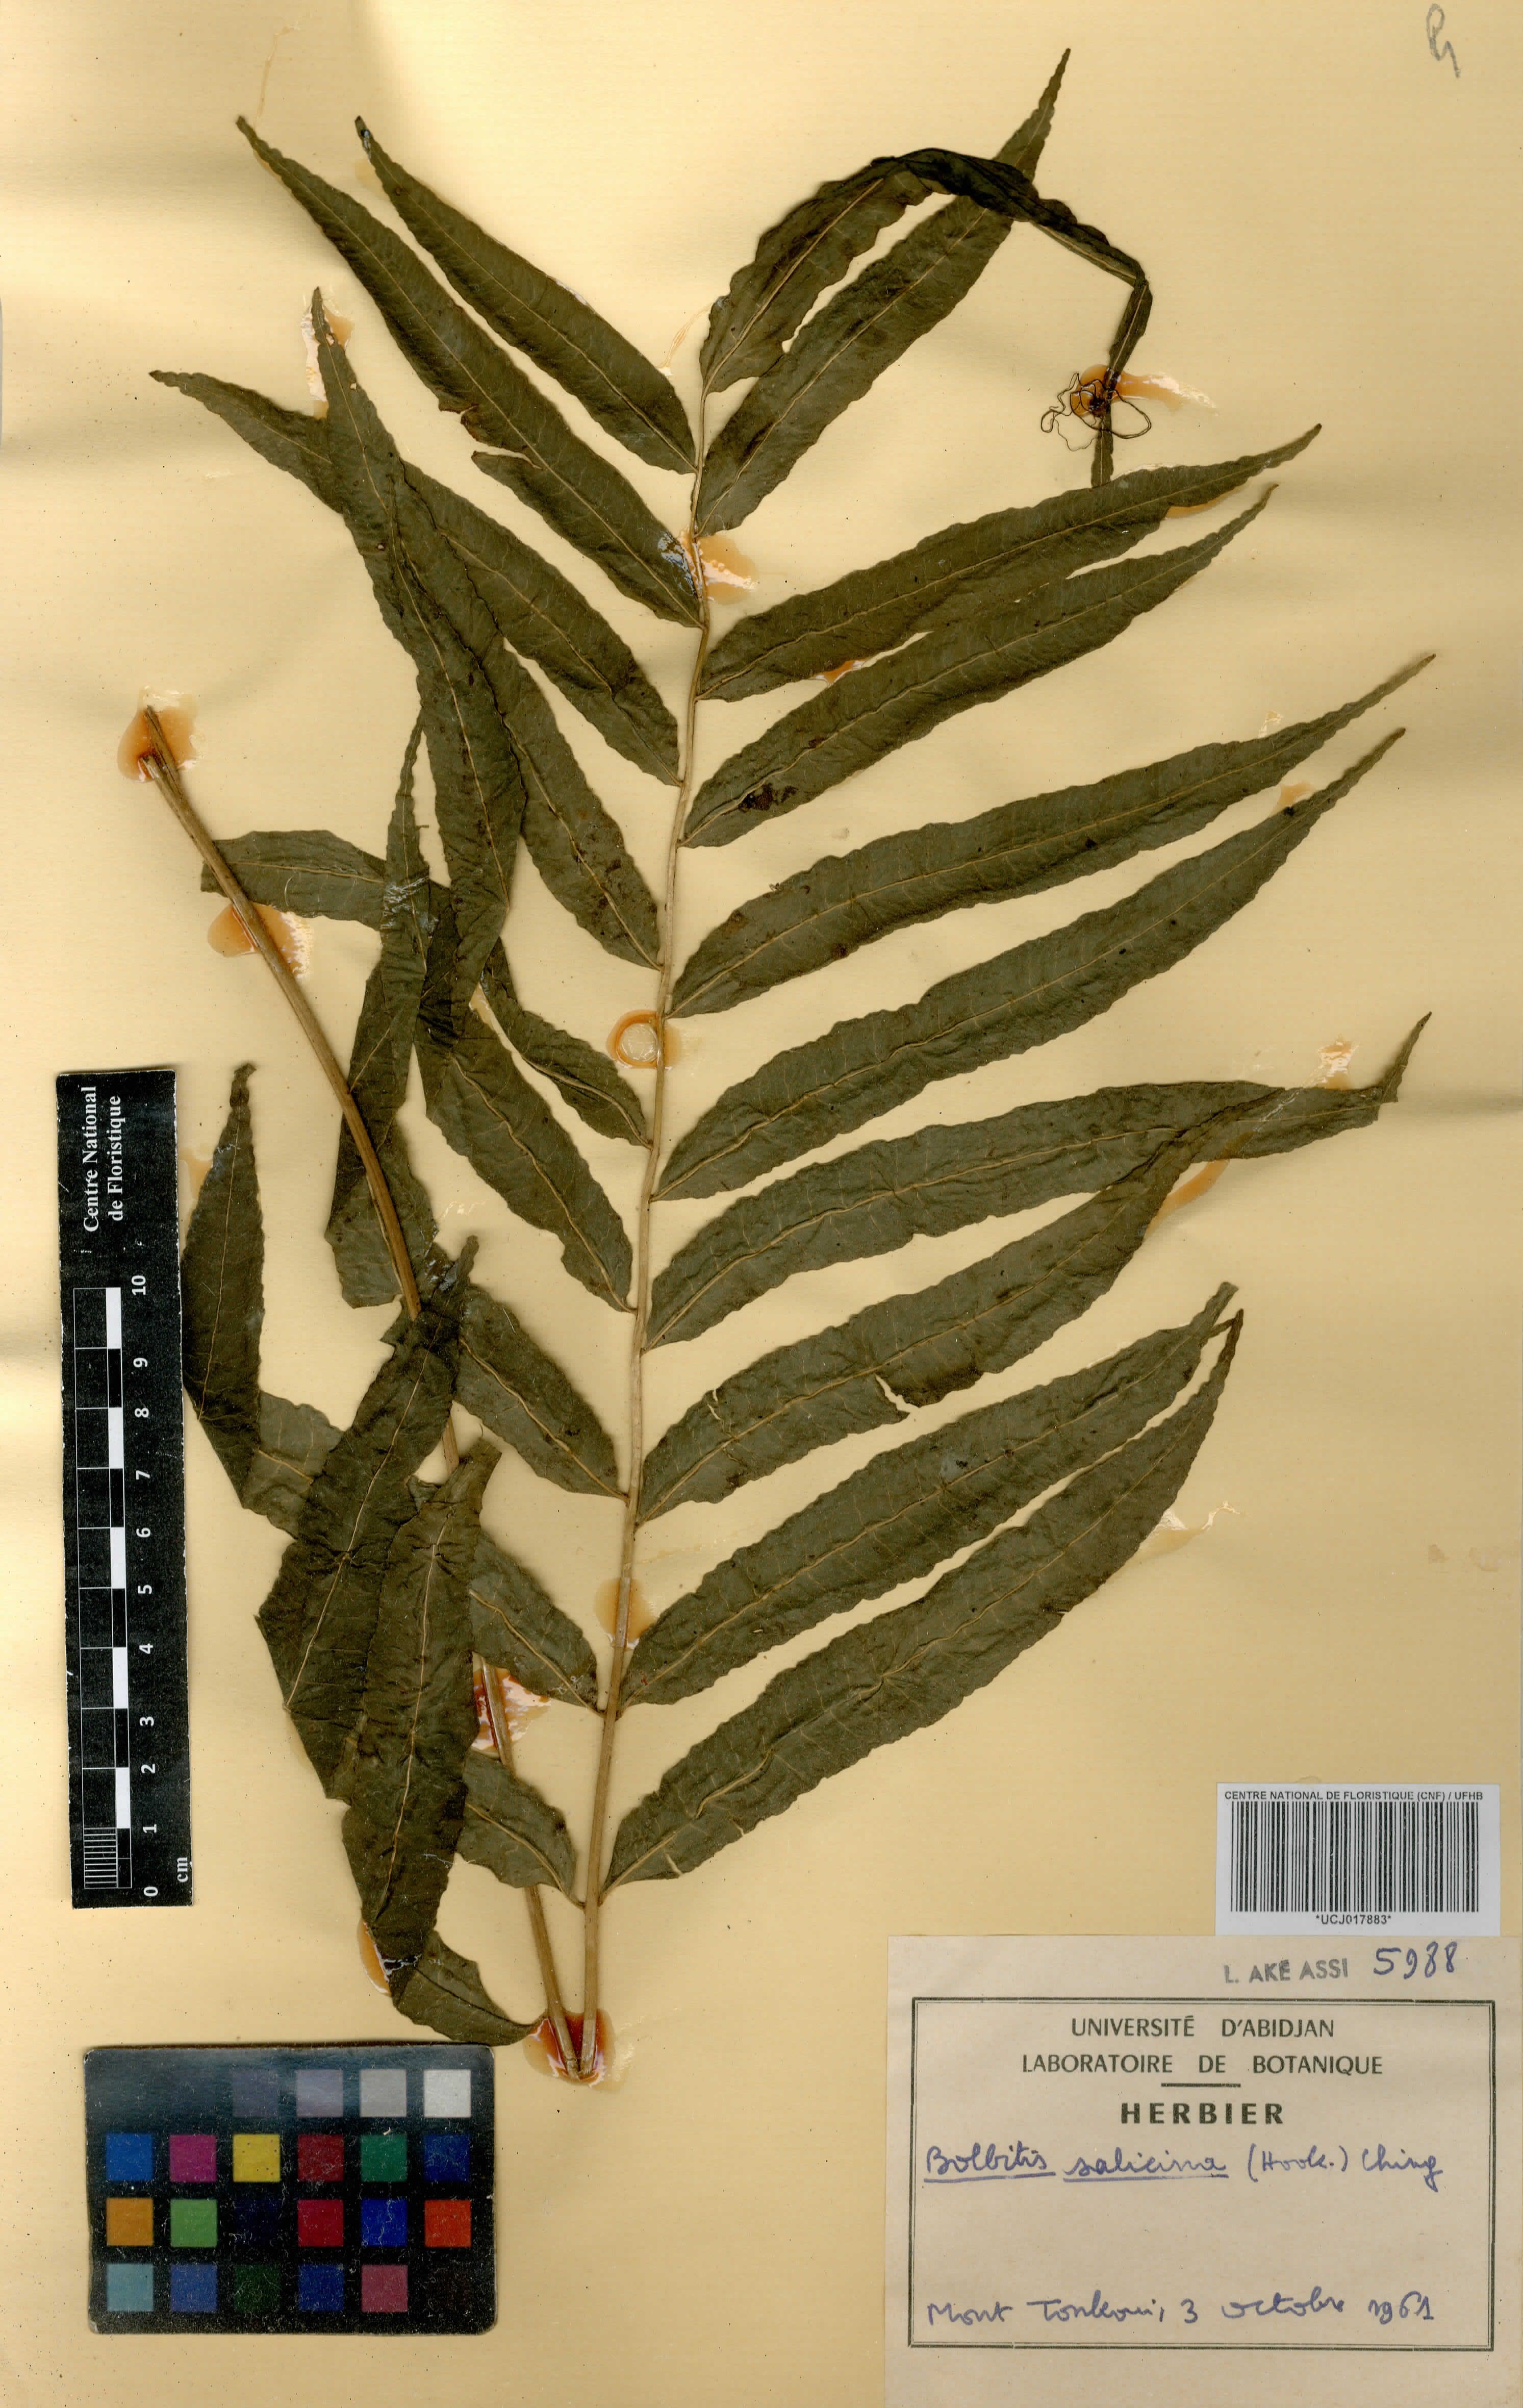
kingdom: Plantae
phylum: Tracheophyta
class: Polypodiopsida
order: Polypodiales
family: Dryopteridaceae
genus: Bolbitis
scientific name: Bolbitis salicina
